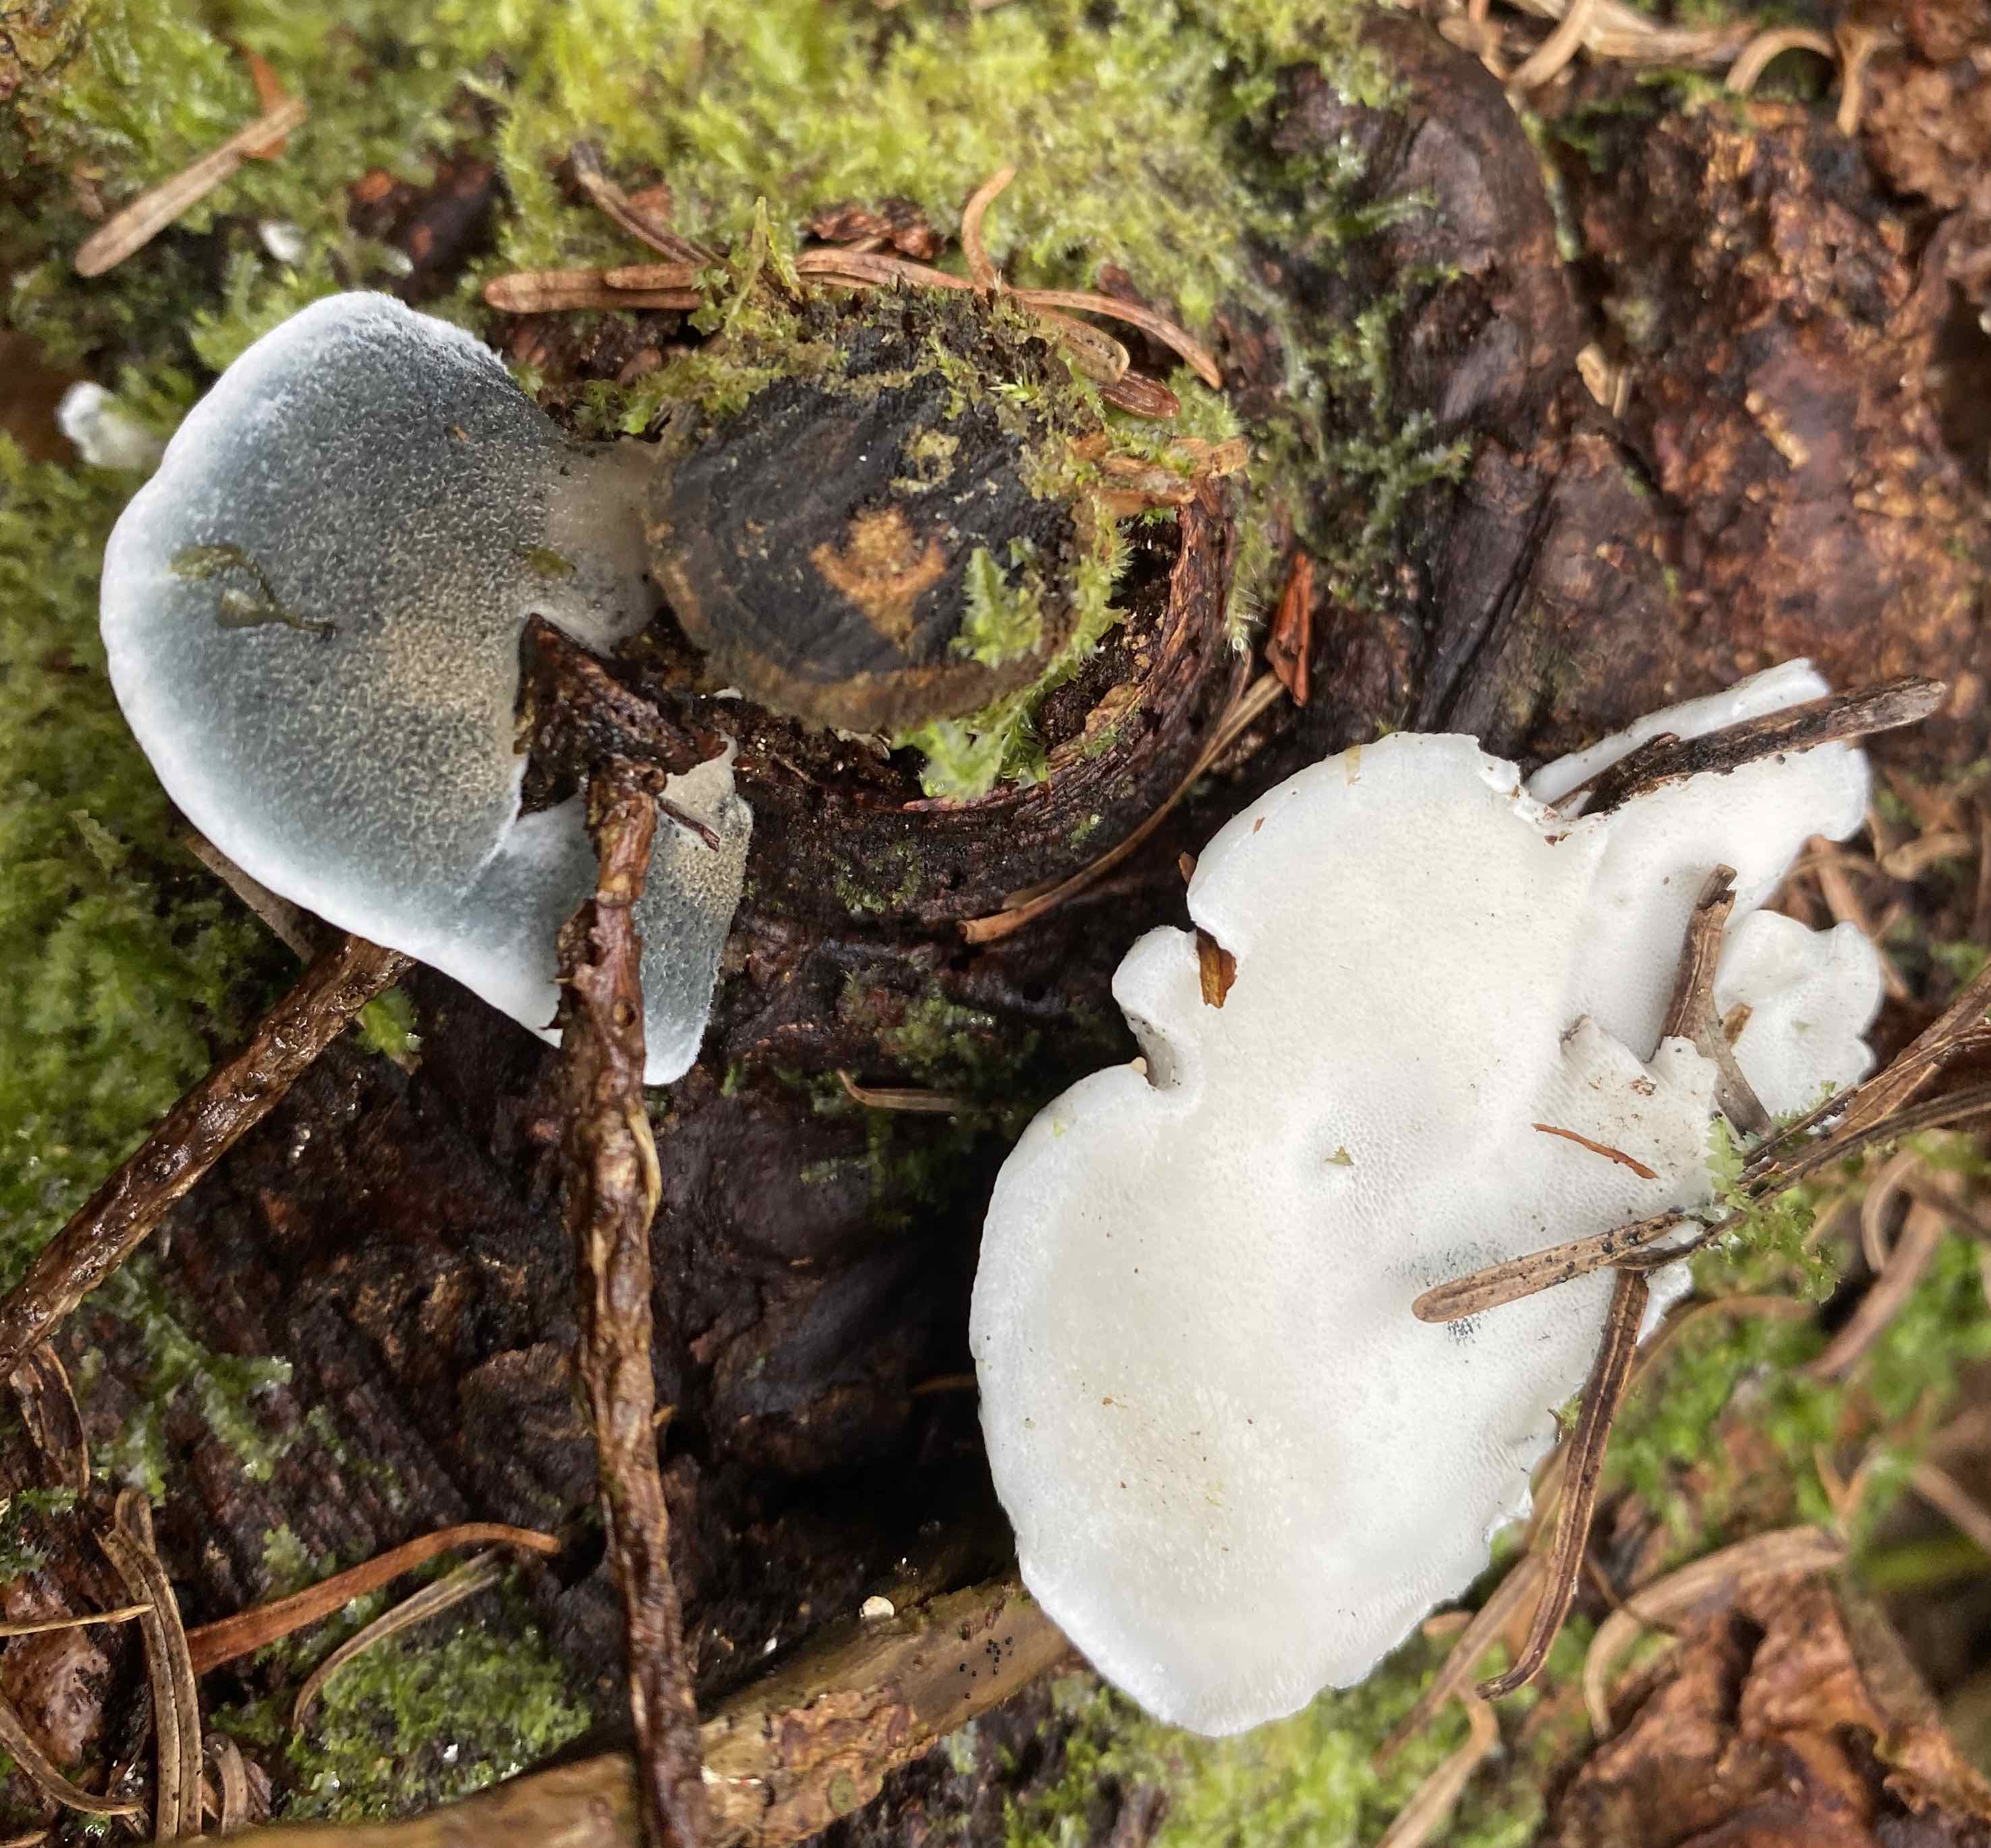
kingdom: Fungi
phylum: Basidiomycota
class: Agaricomycetes
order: Polyporales
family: Polyporaceae
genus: Cyanosporus
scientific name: Cyanosporus caesius
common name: blålig kødporesvamp
